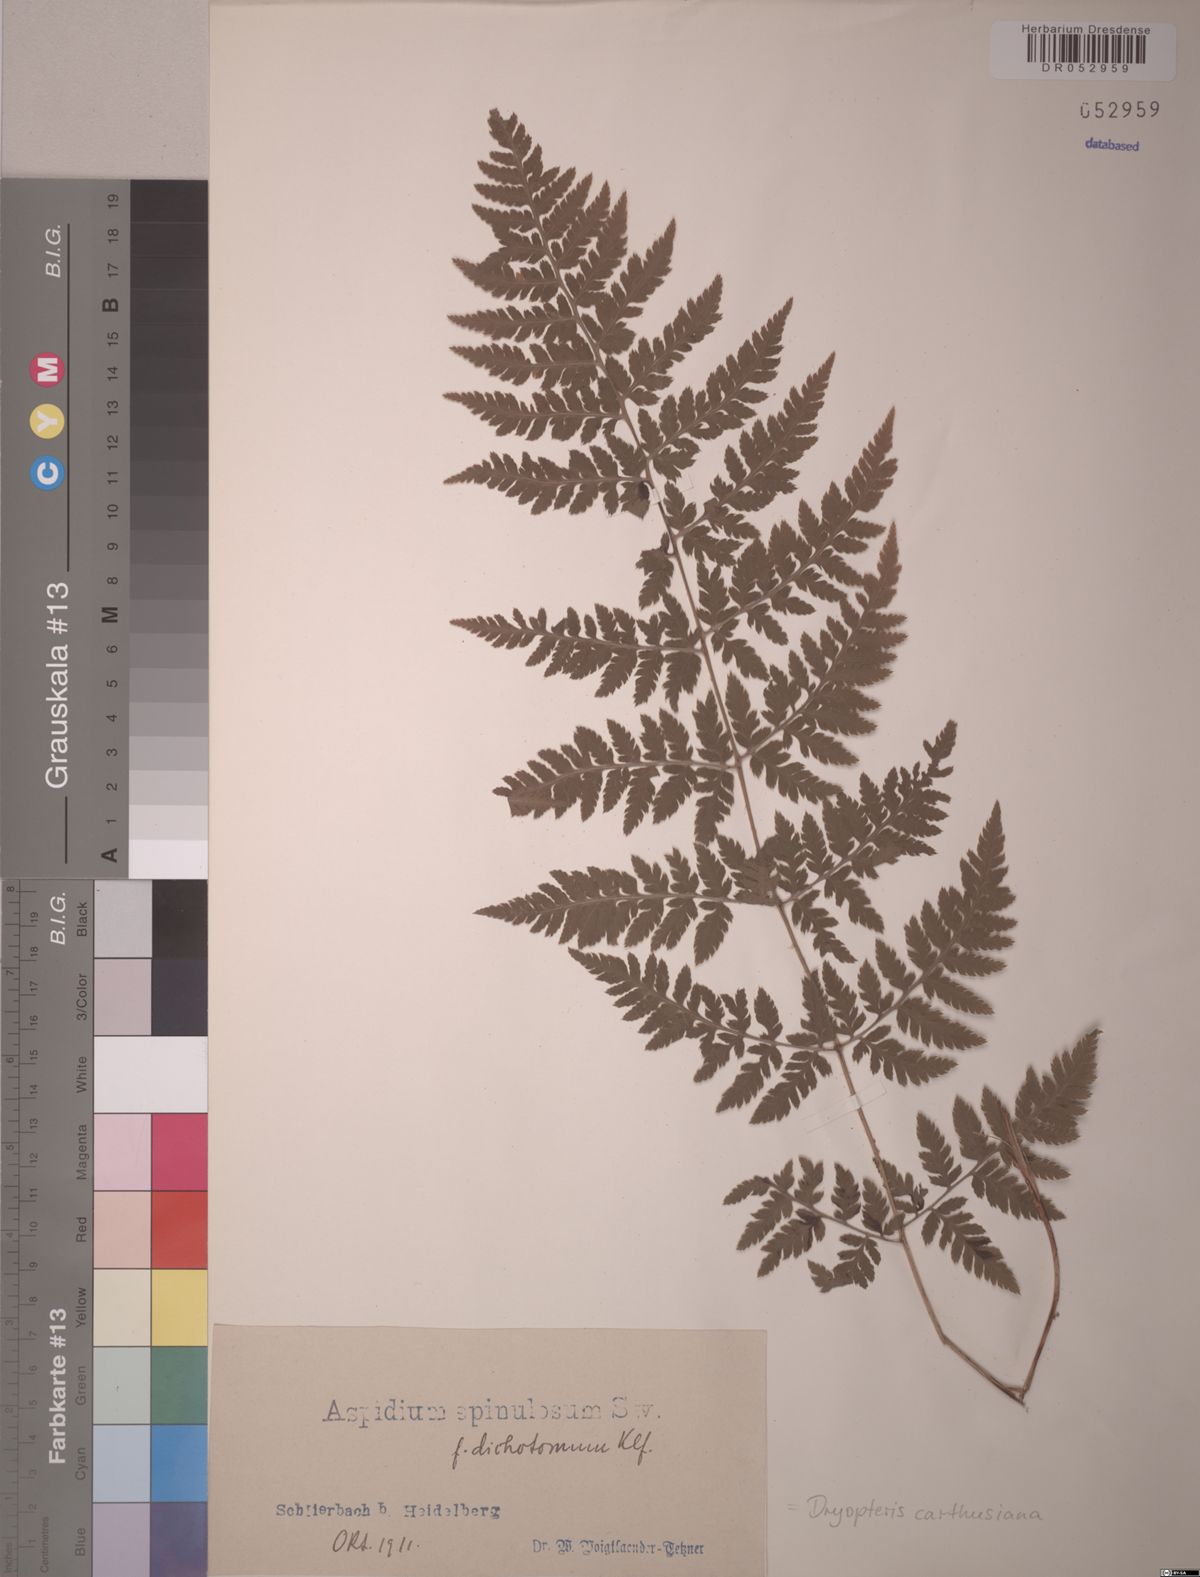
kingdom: Plantae
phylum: Tracheophyta
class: Polypodiopsida
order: Polypodiales
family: Dryopteridaceae
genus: Dryopteris
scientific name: Dryopteris carthusiana
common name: Narrow buckler-fern
